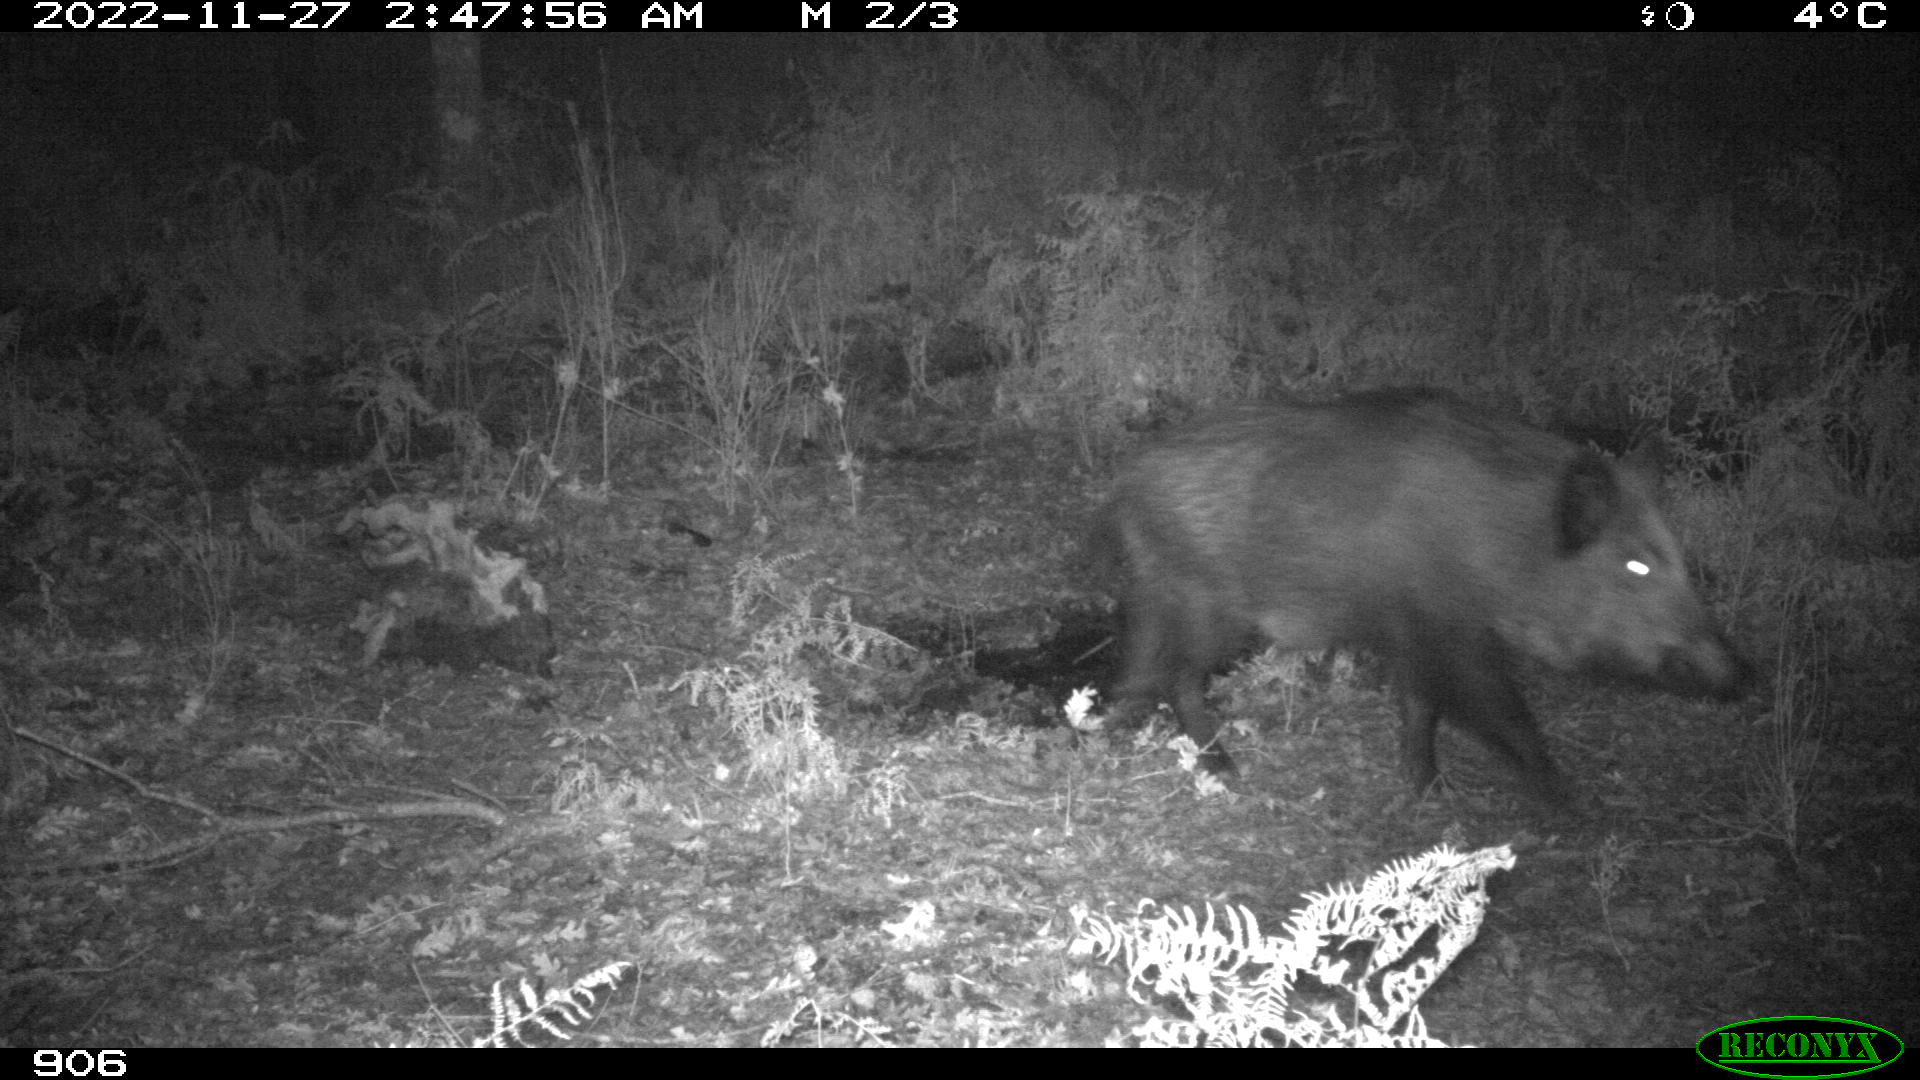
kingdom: Animalia
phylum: Chordata
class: Mammalia
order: Artiodactyla
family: Suidae
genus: Sus
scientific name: Sus scrofa
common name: Wild boar
